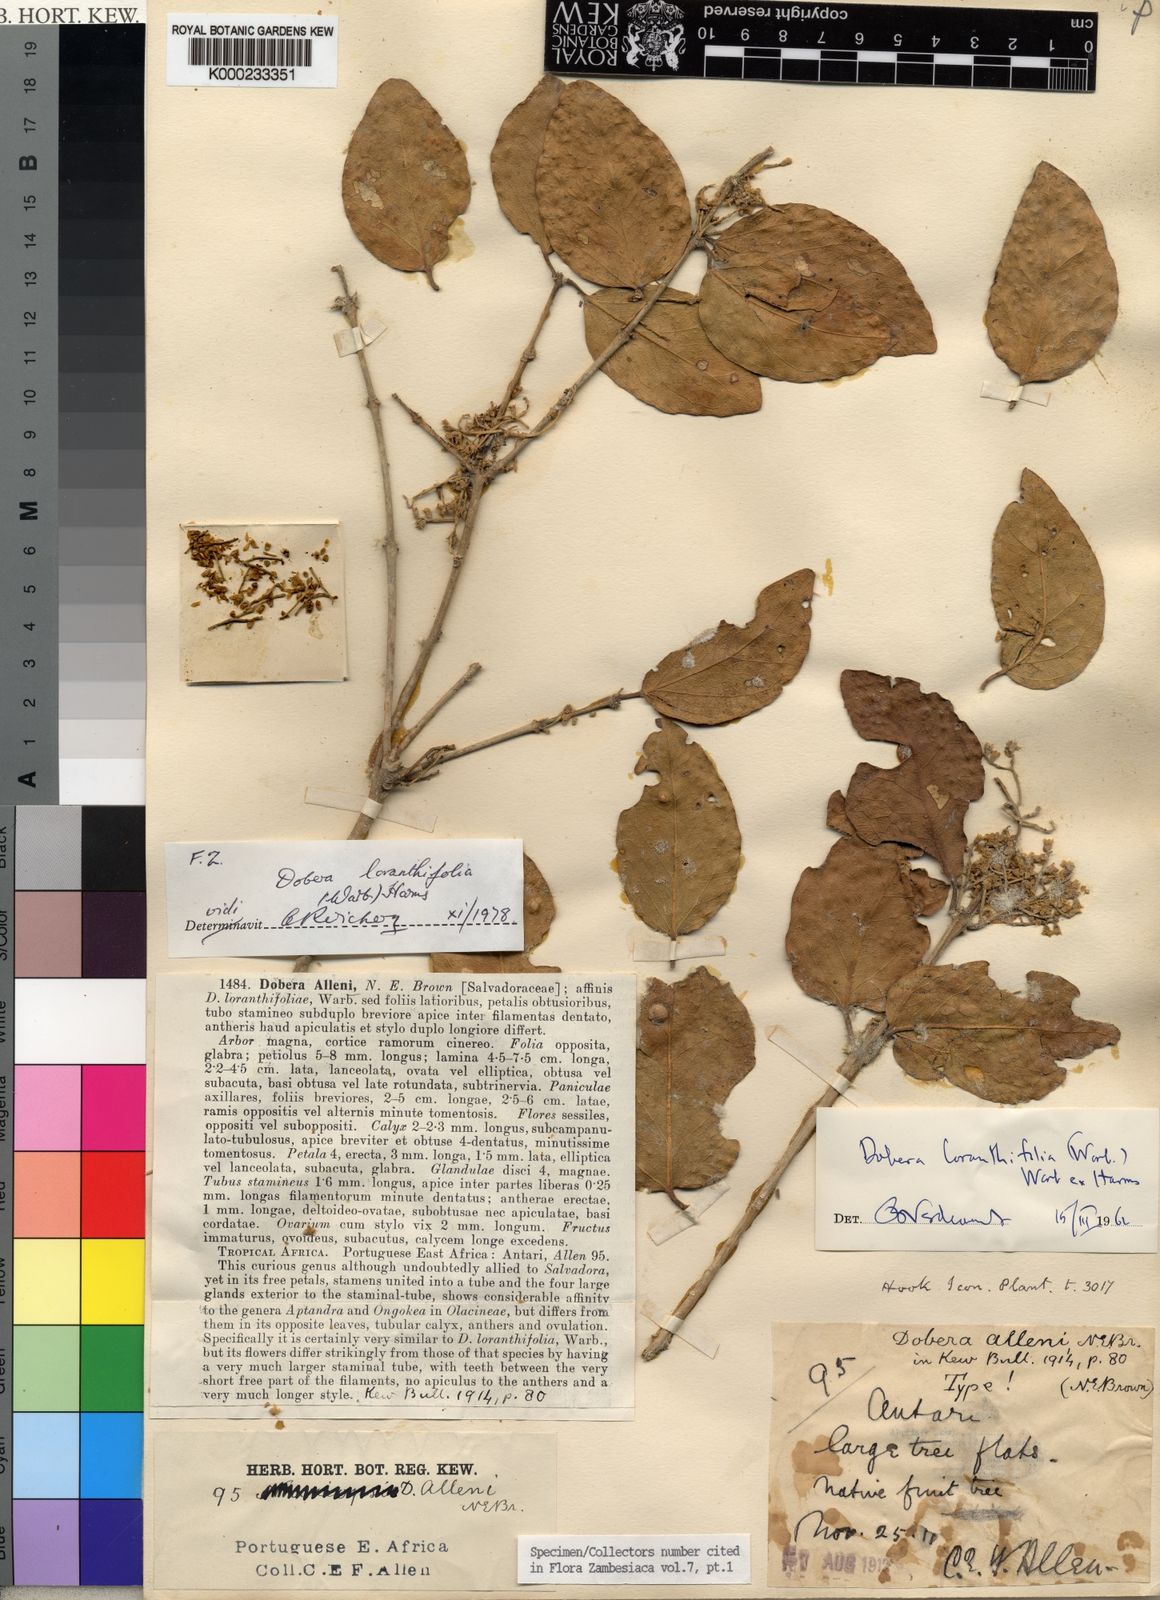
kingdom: Plantae
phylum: Tracheophyta
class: Magnoliopsida
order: Brassicales
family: Salvadoraceae
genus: Dobera
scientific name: Dobera loranthifolia
